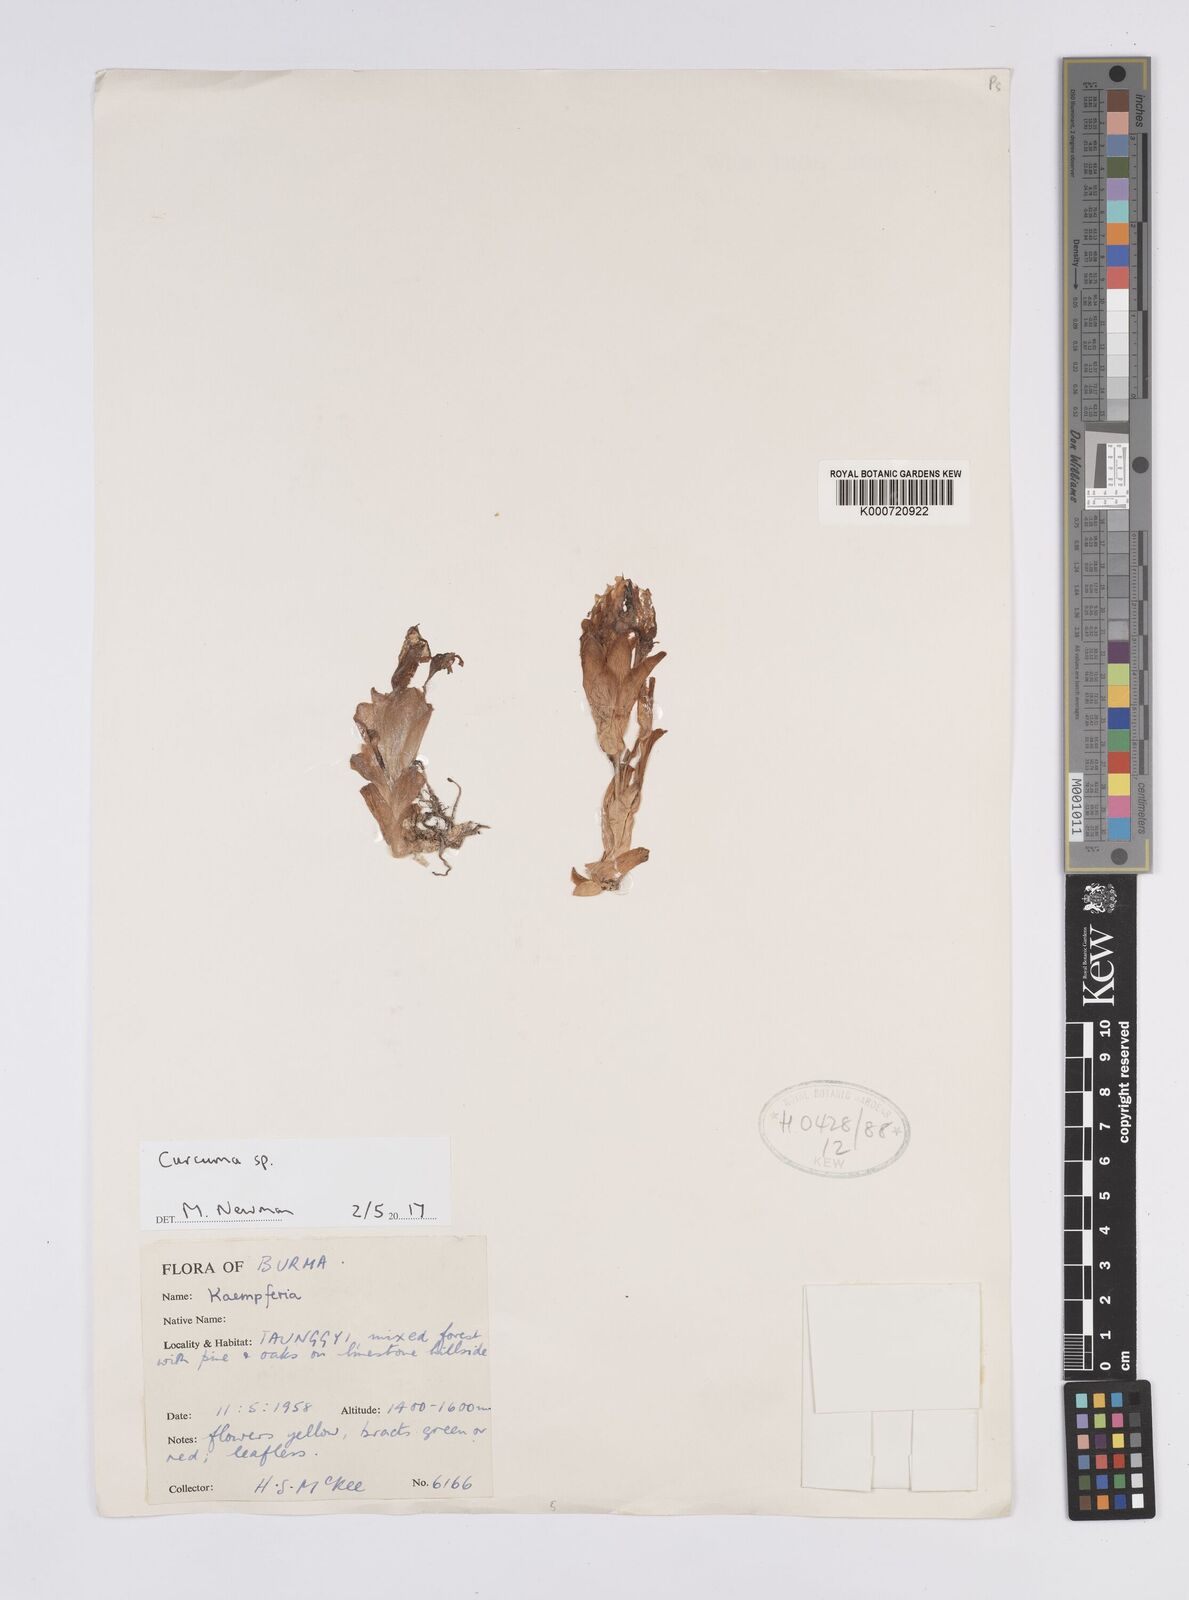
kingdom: Plantae
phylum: Tracheophyta
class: Liliopsida
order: Zingiberales
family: Zingiberaceae
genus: Curcuma
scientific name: Curcuma
